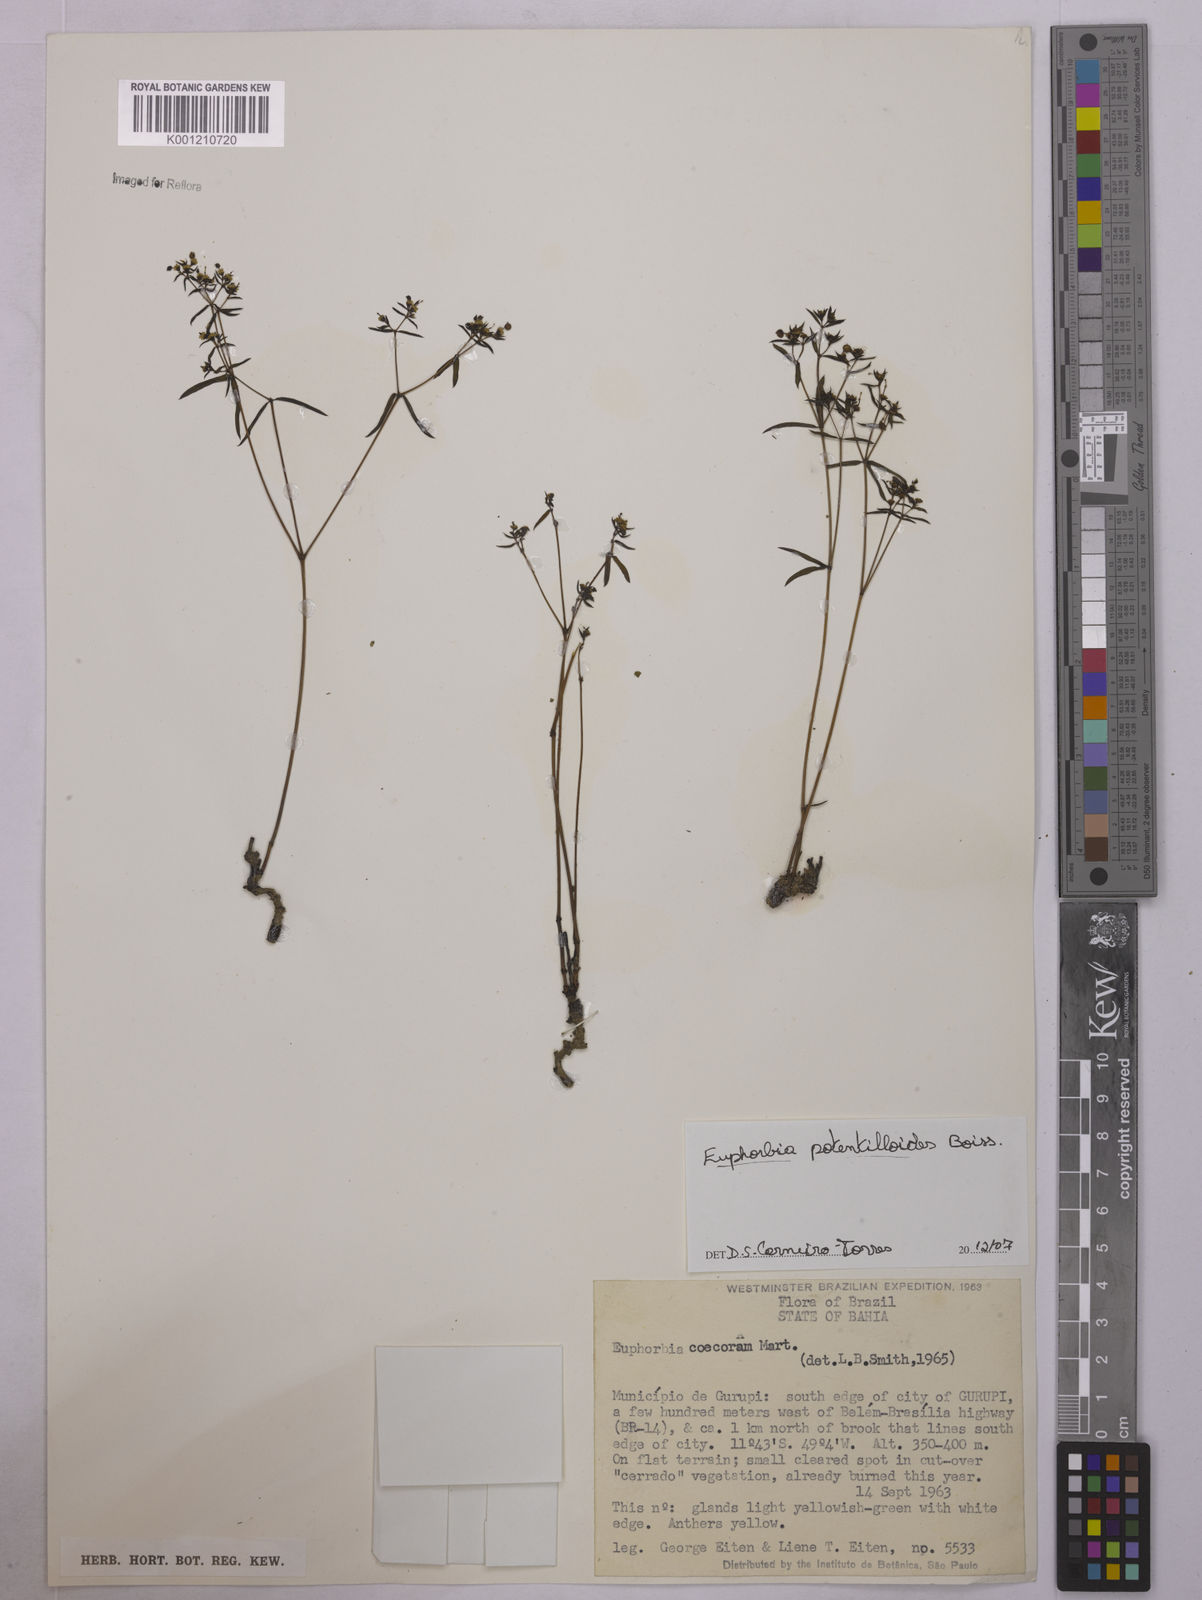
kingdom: Plantae
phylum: Tracheophyta
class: Magnoliopsida
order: Malpighiales
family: Euphorbiaceae
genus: Euphorbia
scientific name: Euphorbia potentilloides
